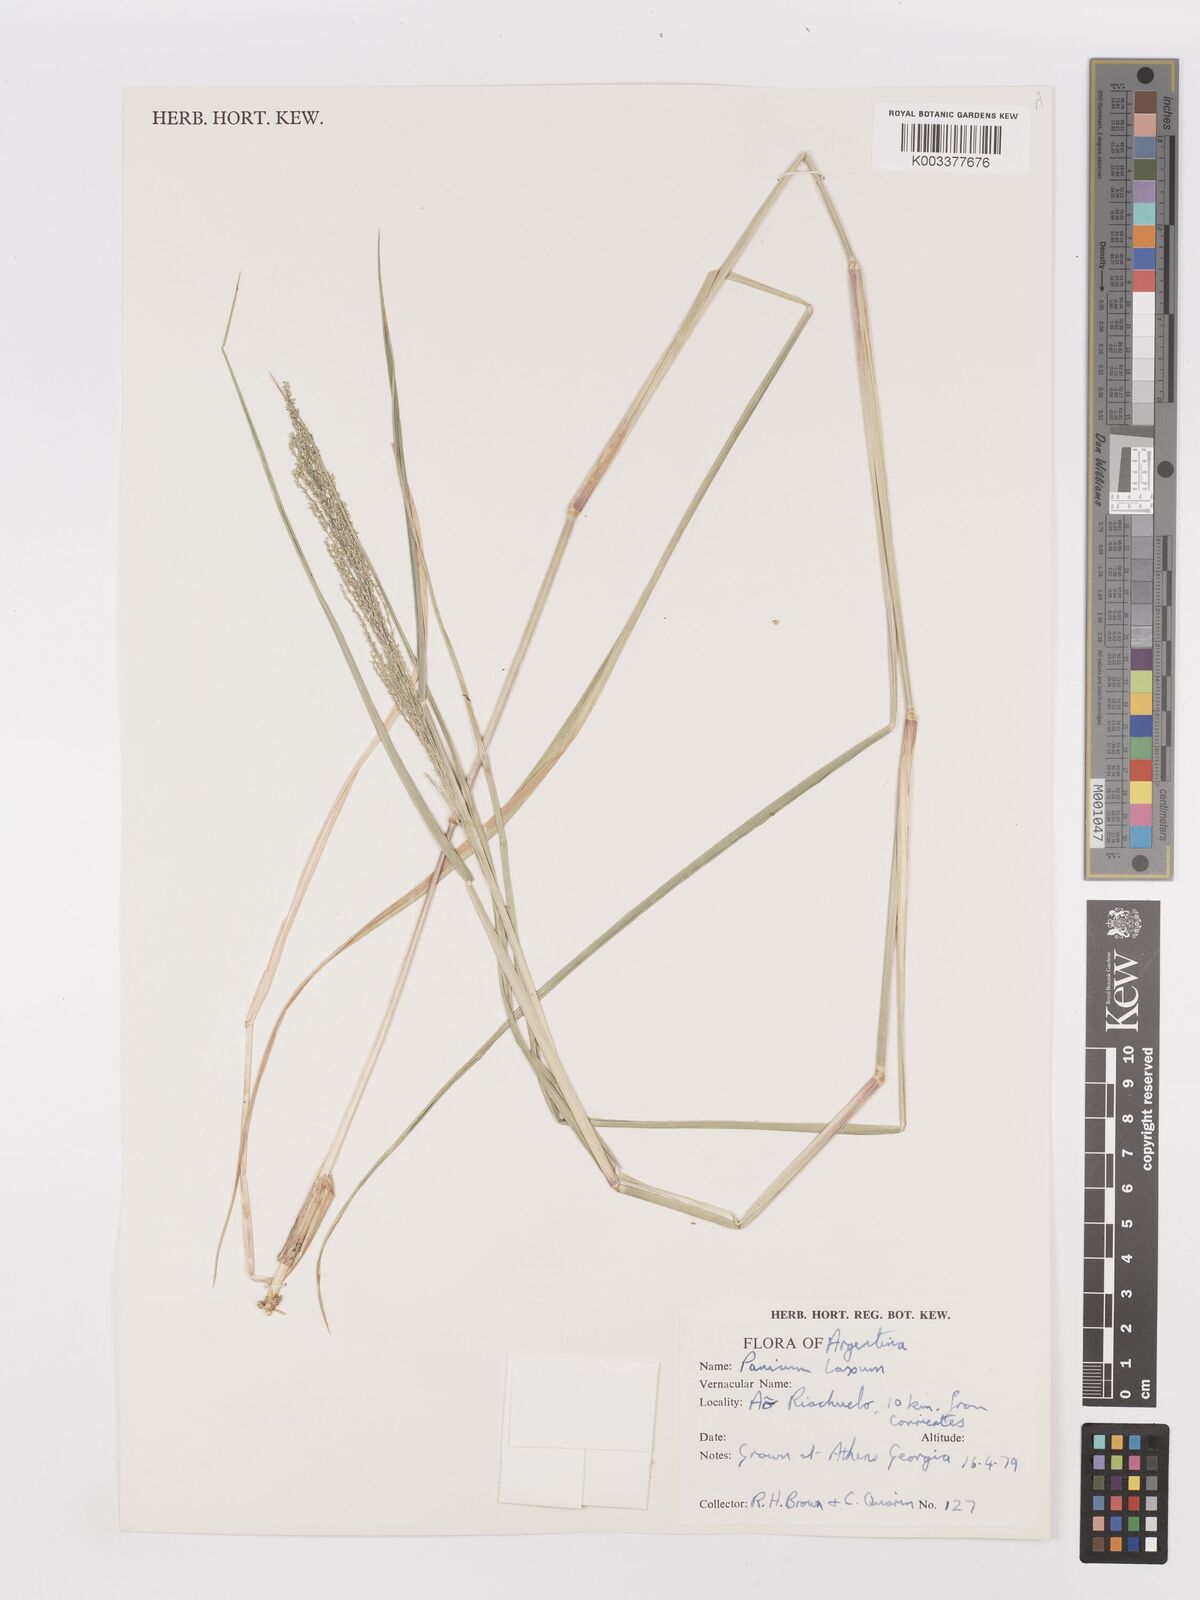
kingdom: Plantae
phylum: Tracheophyta
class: Liliopsida
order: Poales
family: Poaceae
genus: Steinchisma
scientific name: Steinchisma laxum
